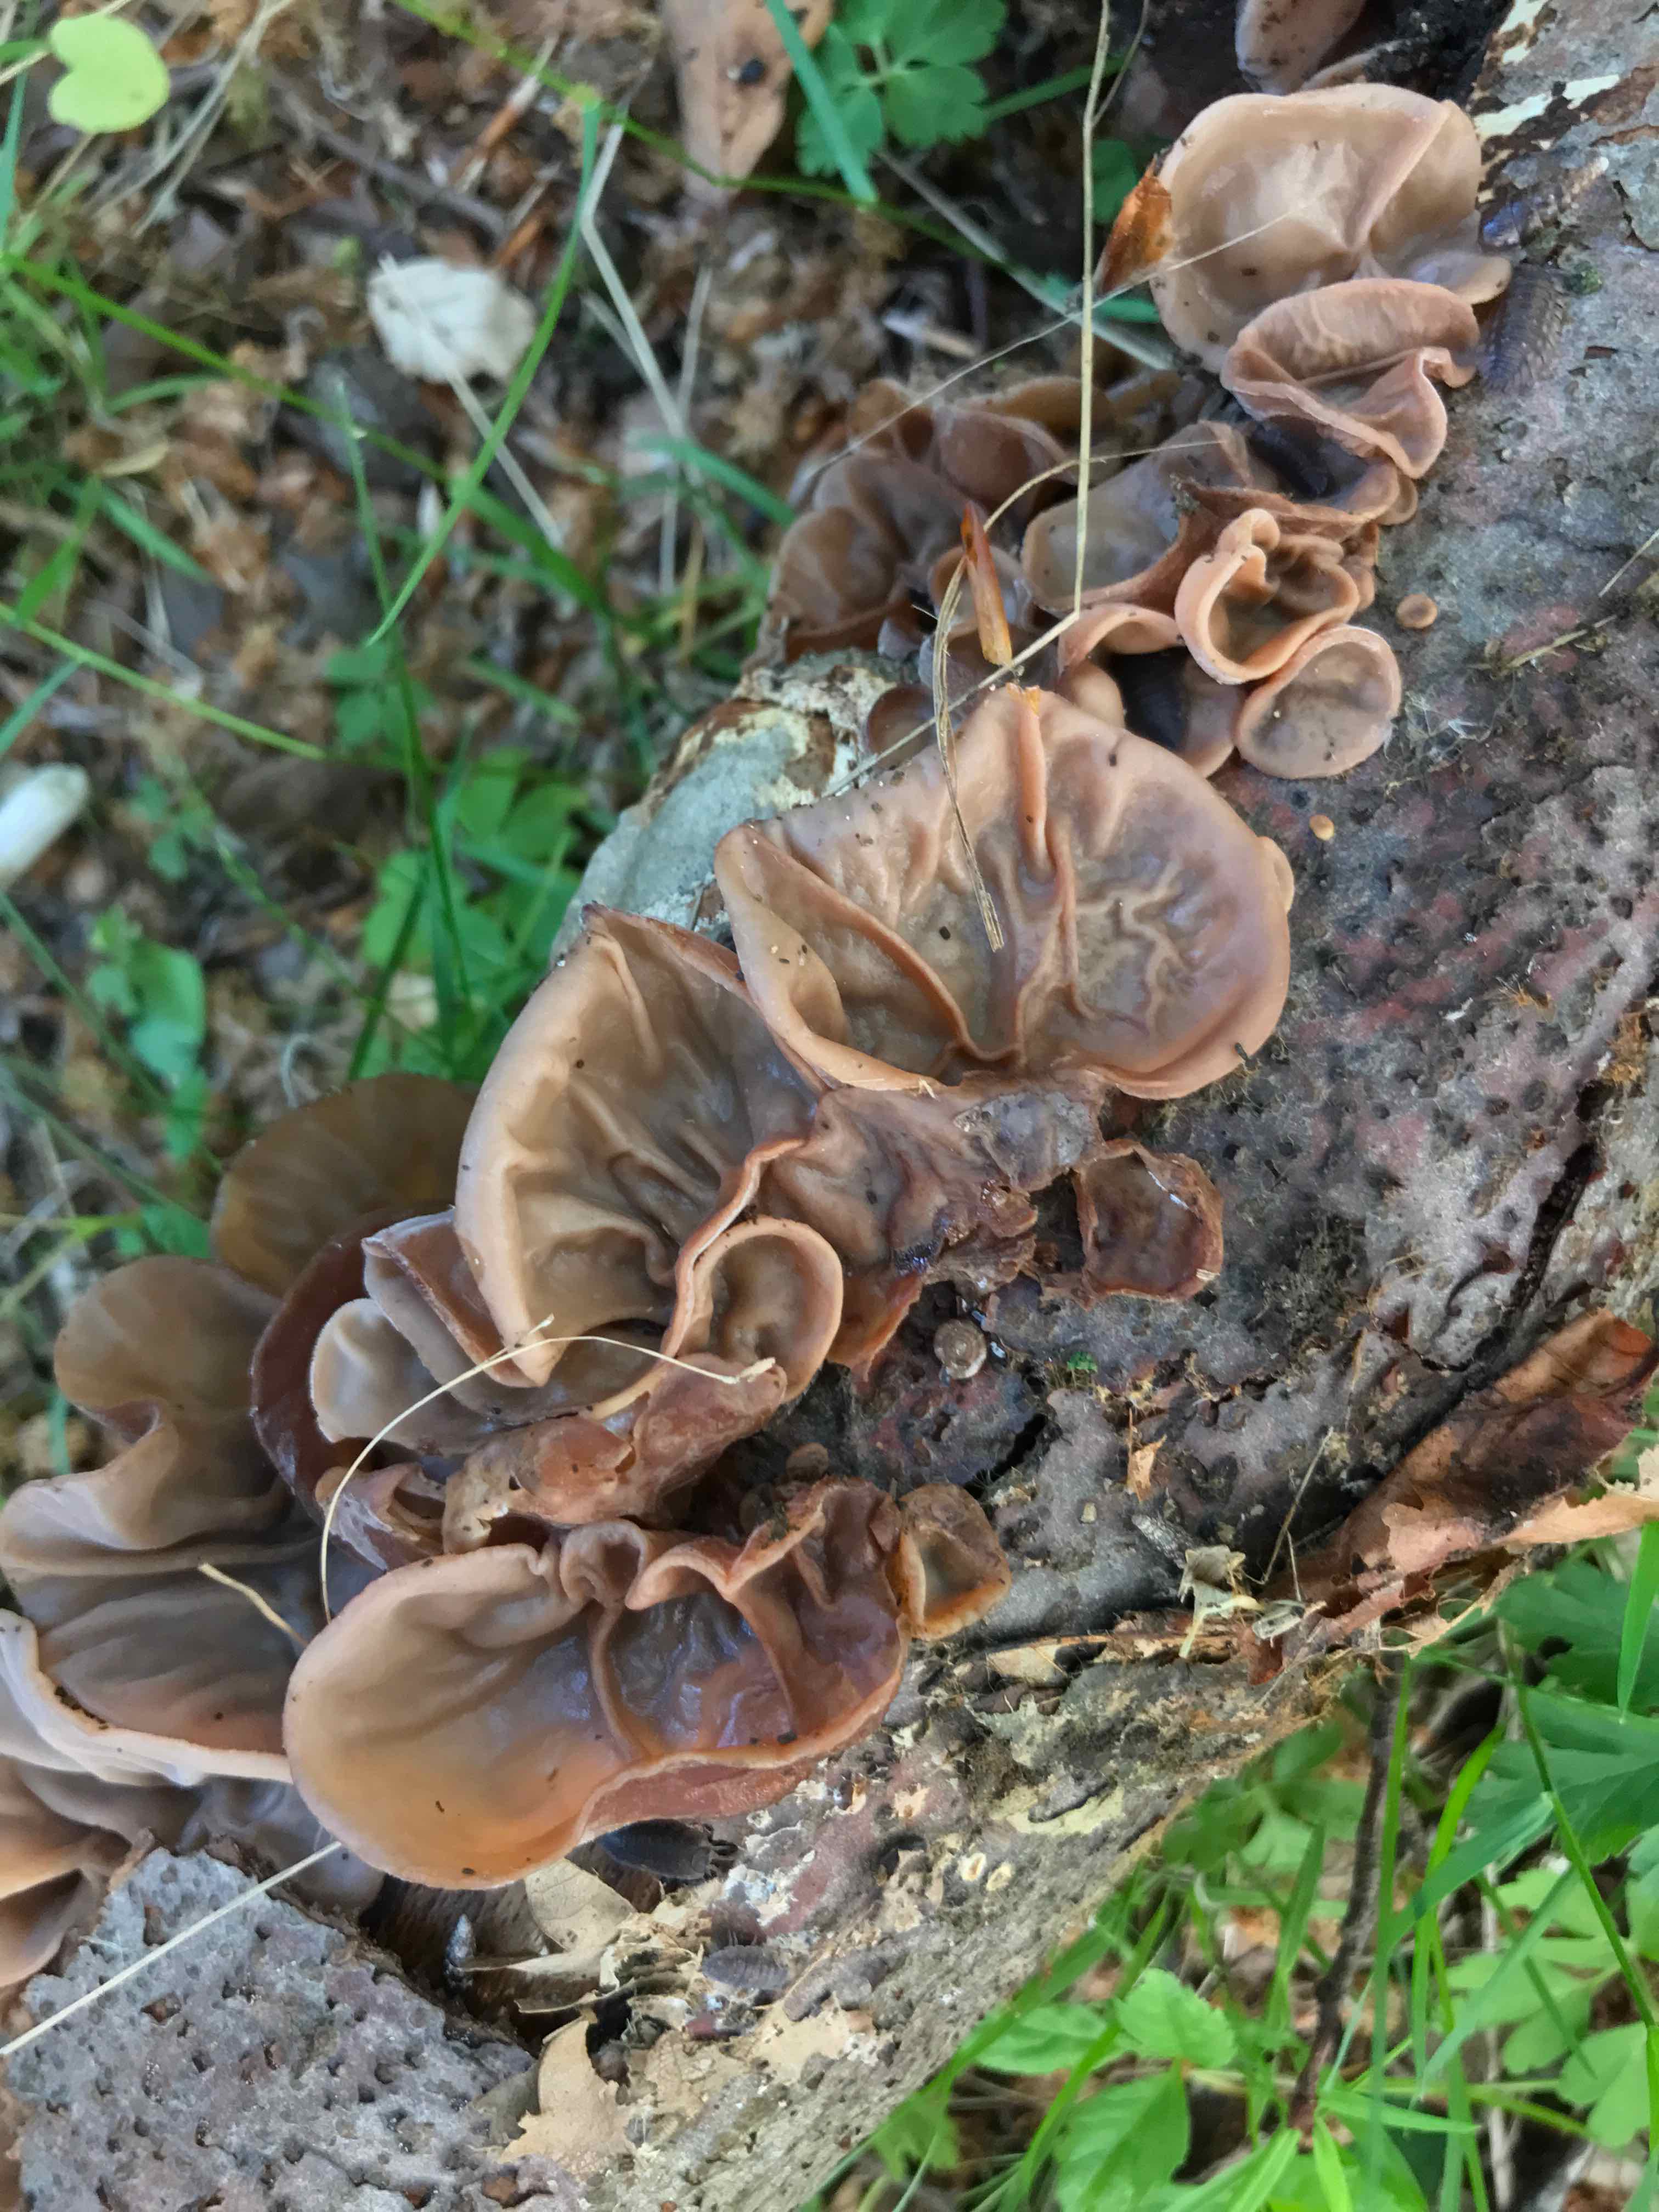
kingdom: Fungi
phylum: Basidiomycota
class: Agaricomycetes
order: Auriculariales
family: Auriculariaceae
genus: Auricularia
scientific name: Auricularia auricula-judae
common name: almindelig judasøre
